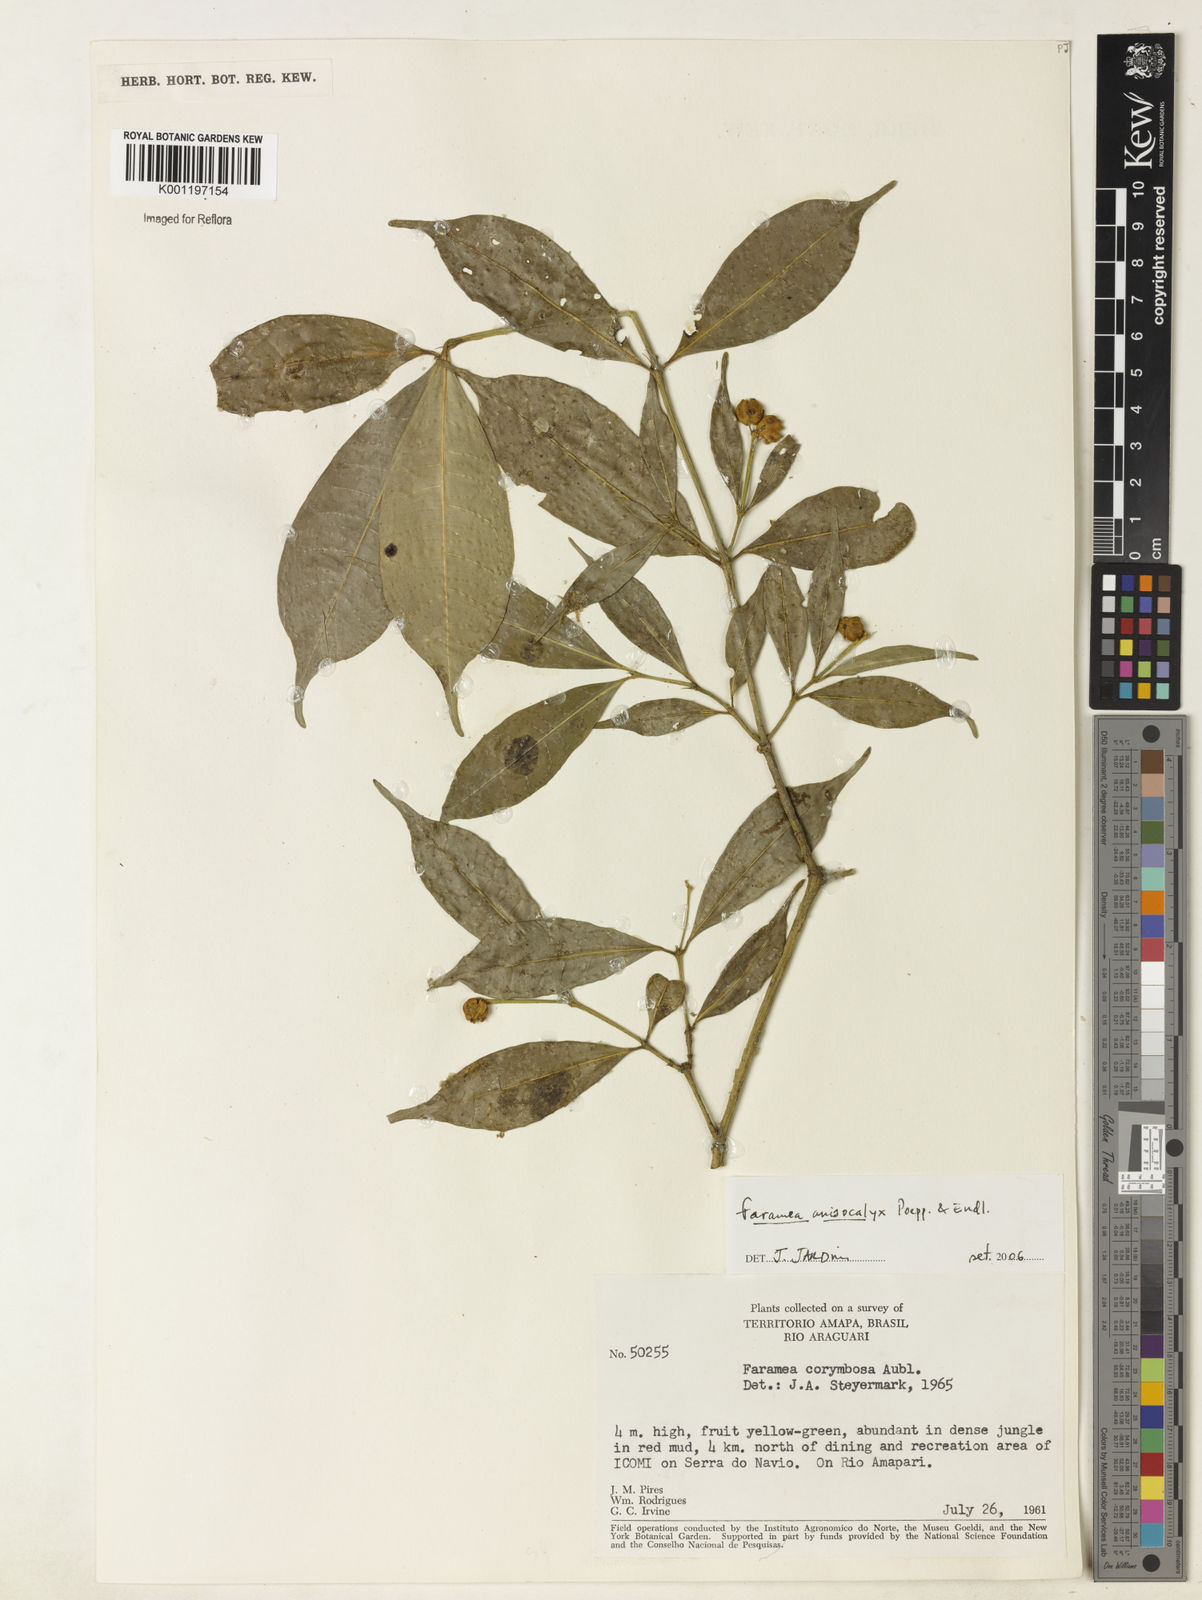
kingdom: Plantae
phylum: Tracheophyta
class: Magnoliopsida
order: Gentianales
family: Rubiaceae
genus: Faramea
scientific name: Faramea anisocalyx
